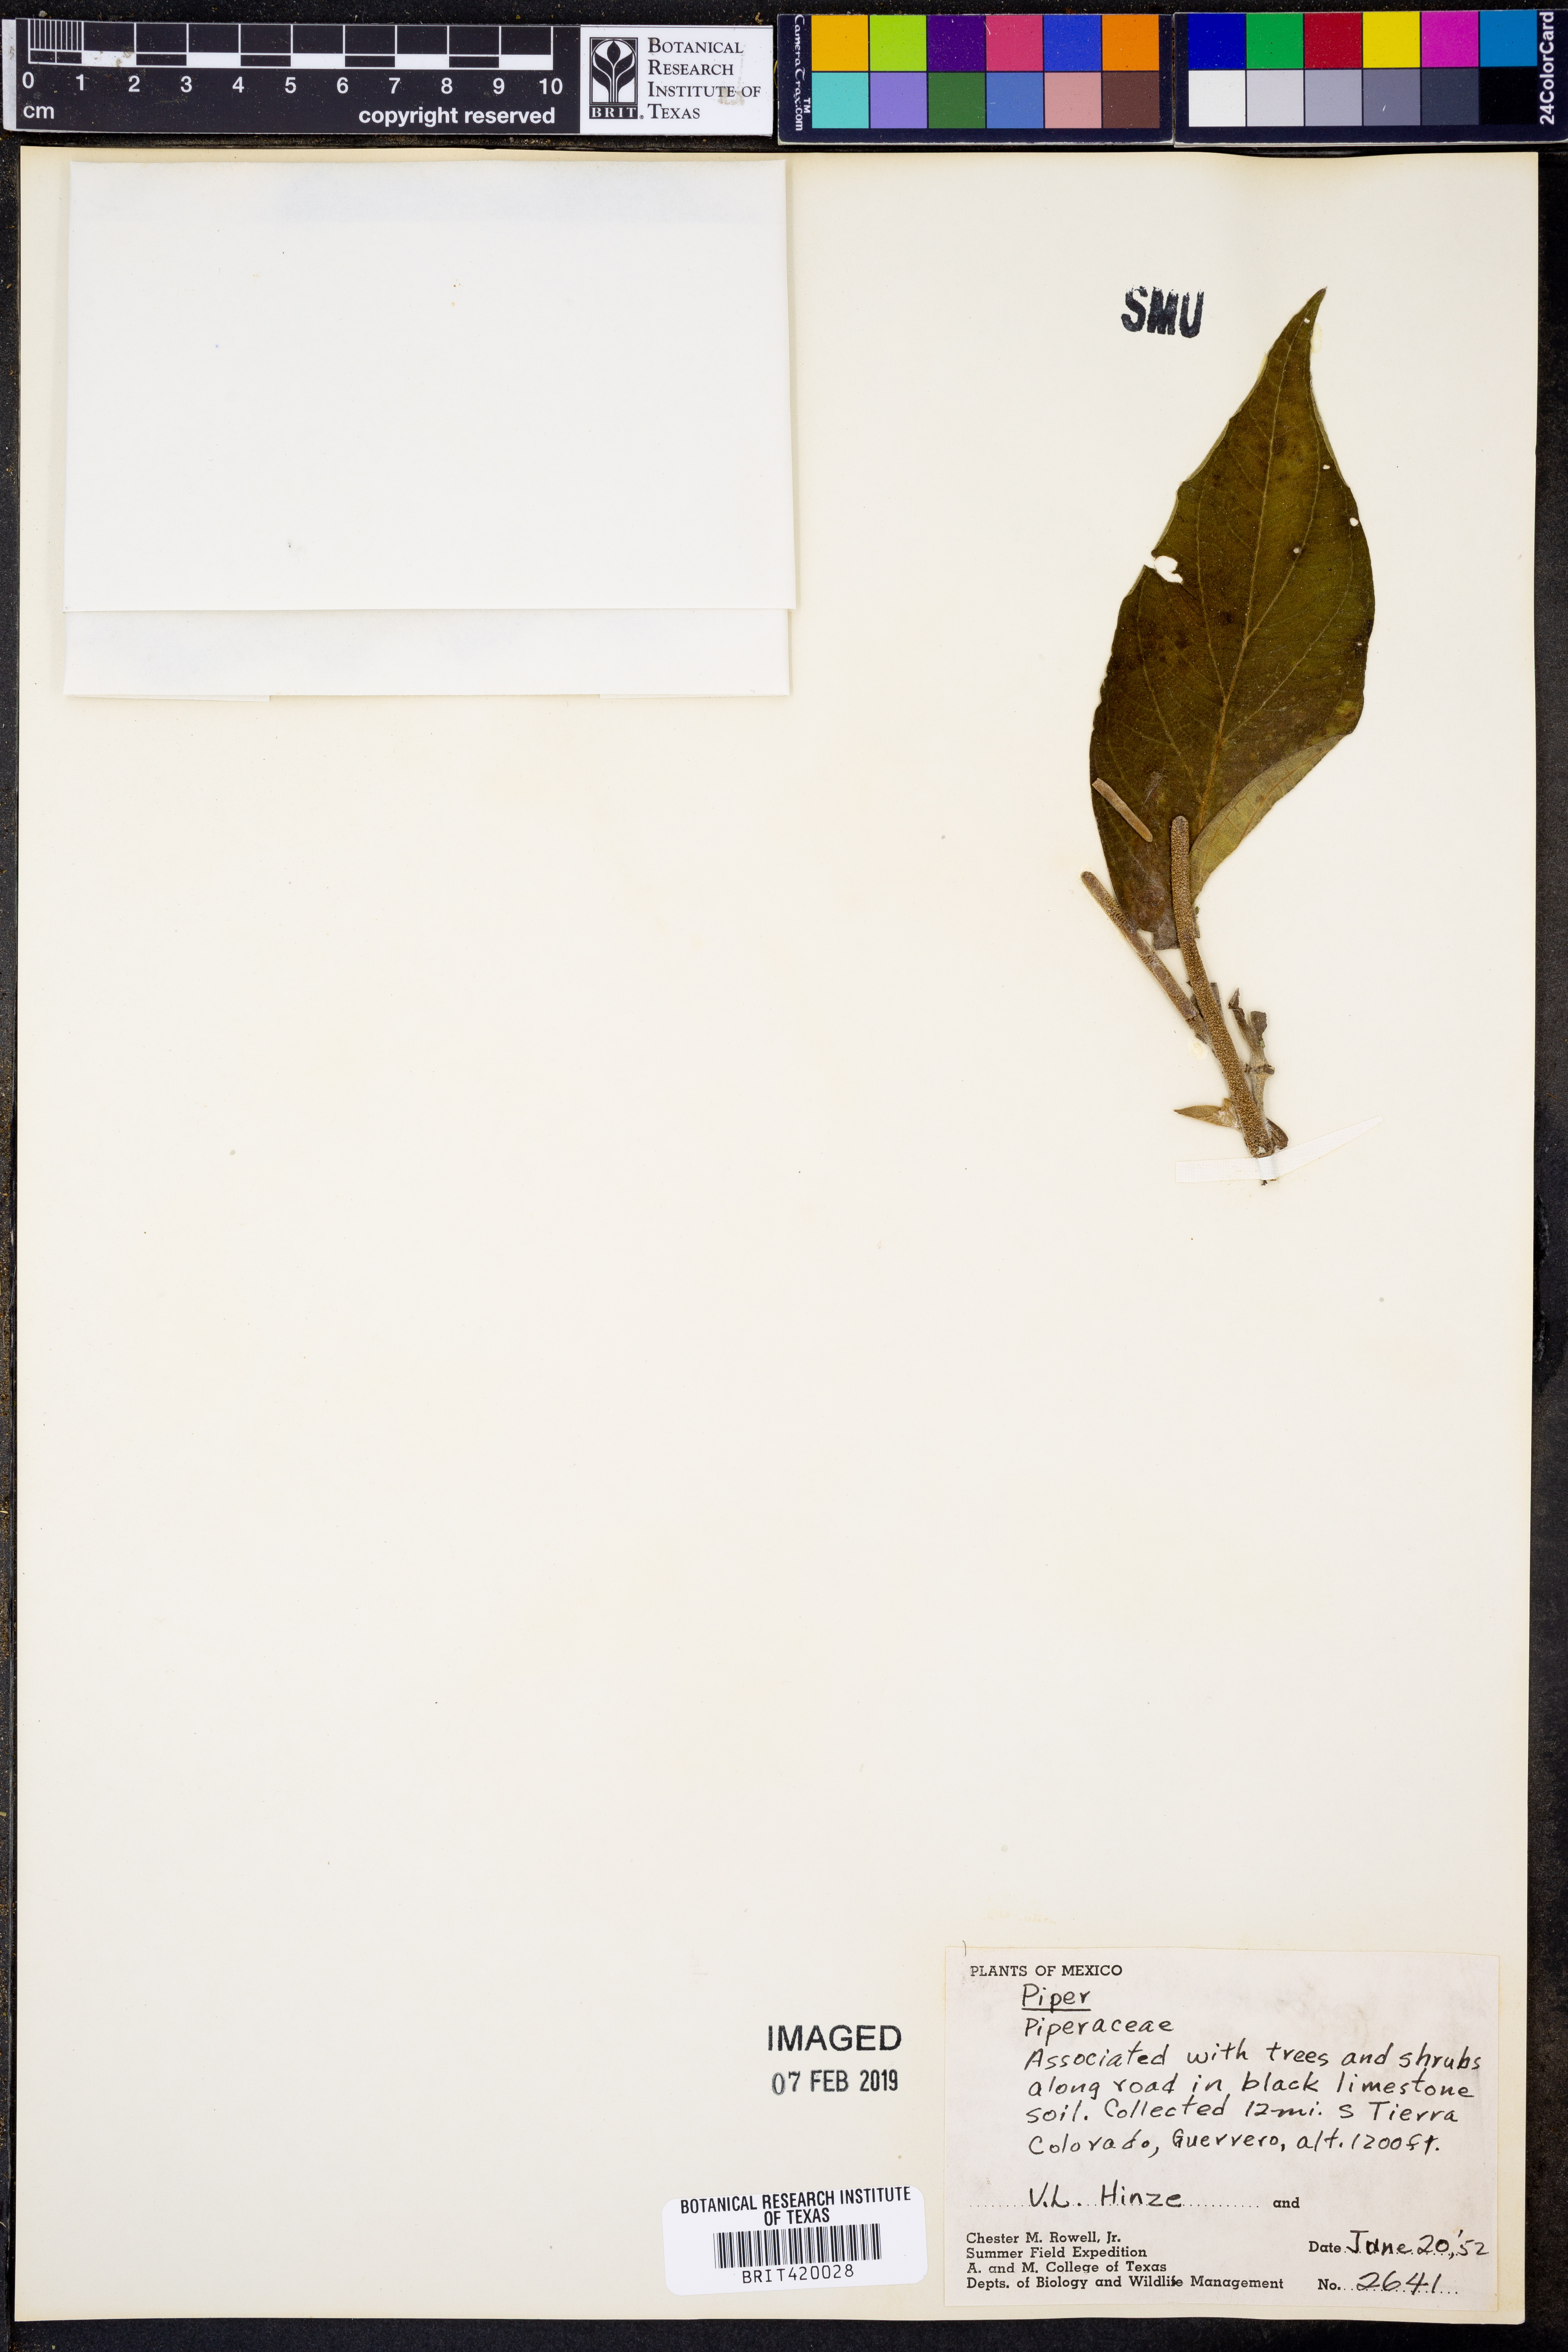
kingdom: Plantae
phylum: Tracheophyta
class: Magnoliopsida
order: Piperales
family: Piperaceae
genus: Piper
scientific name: Piper
